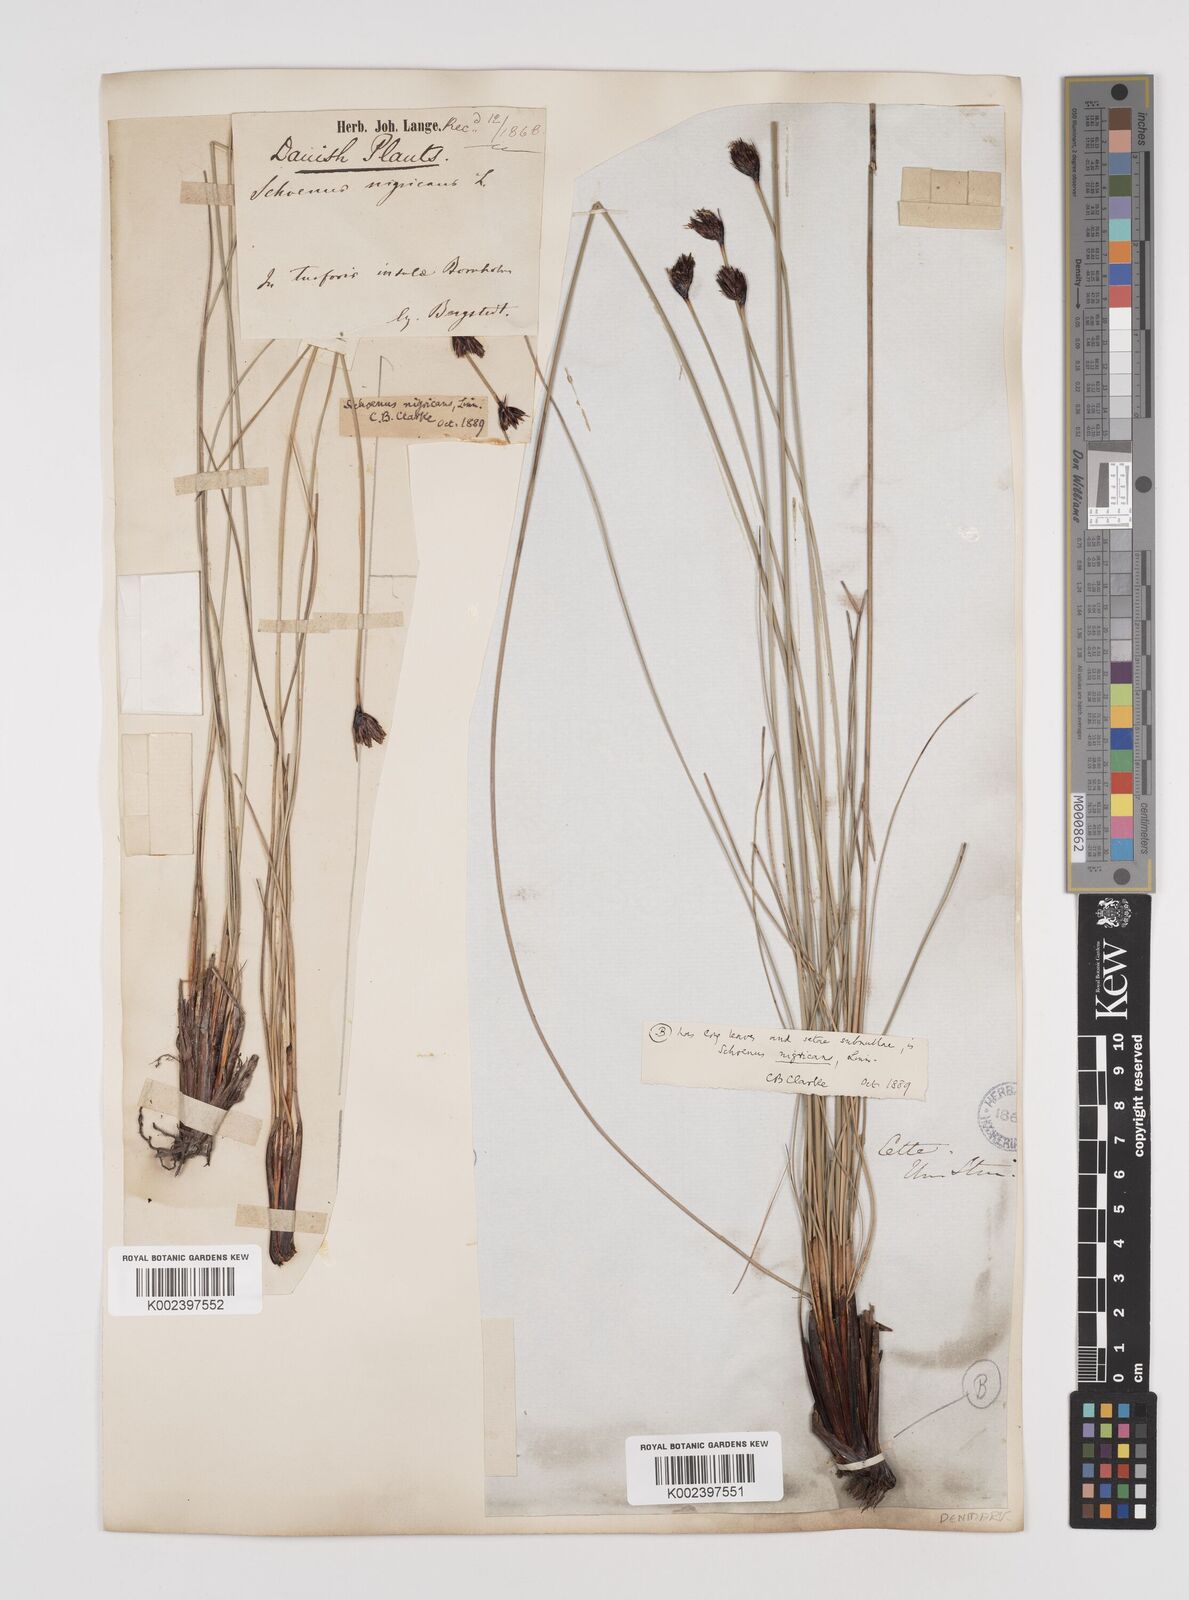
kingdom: Plantae
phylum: Tracheophyta
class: Liliopsida
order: Poales
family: Cyperaceae
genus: Schoenus
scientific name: Schoenus nigricans
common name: Black bog-rush
